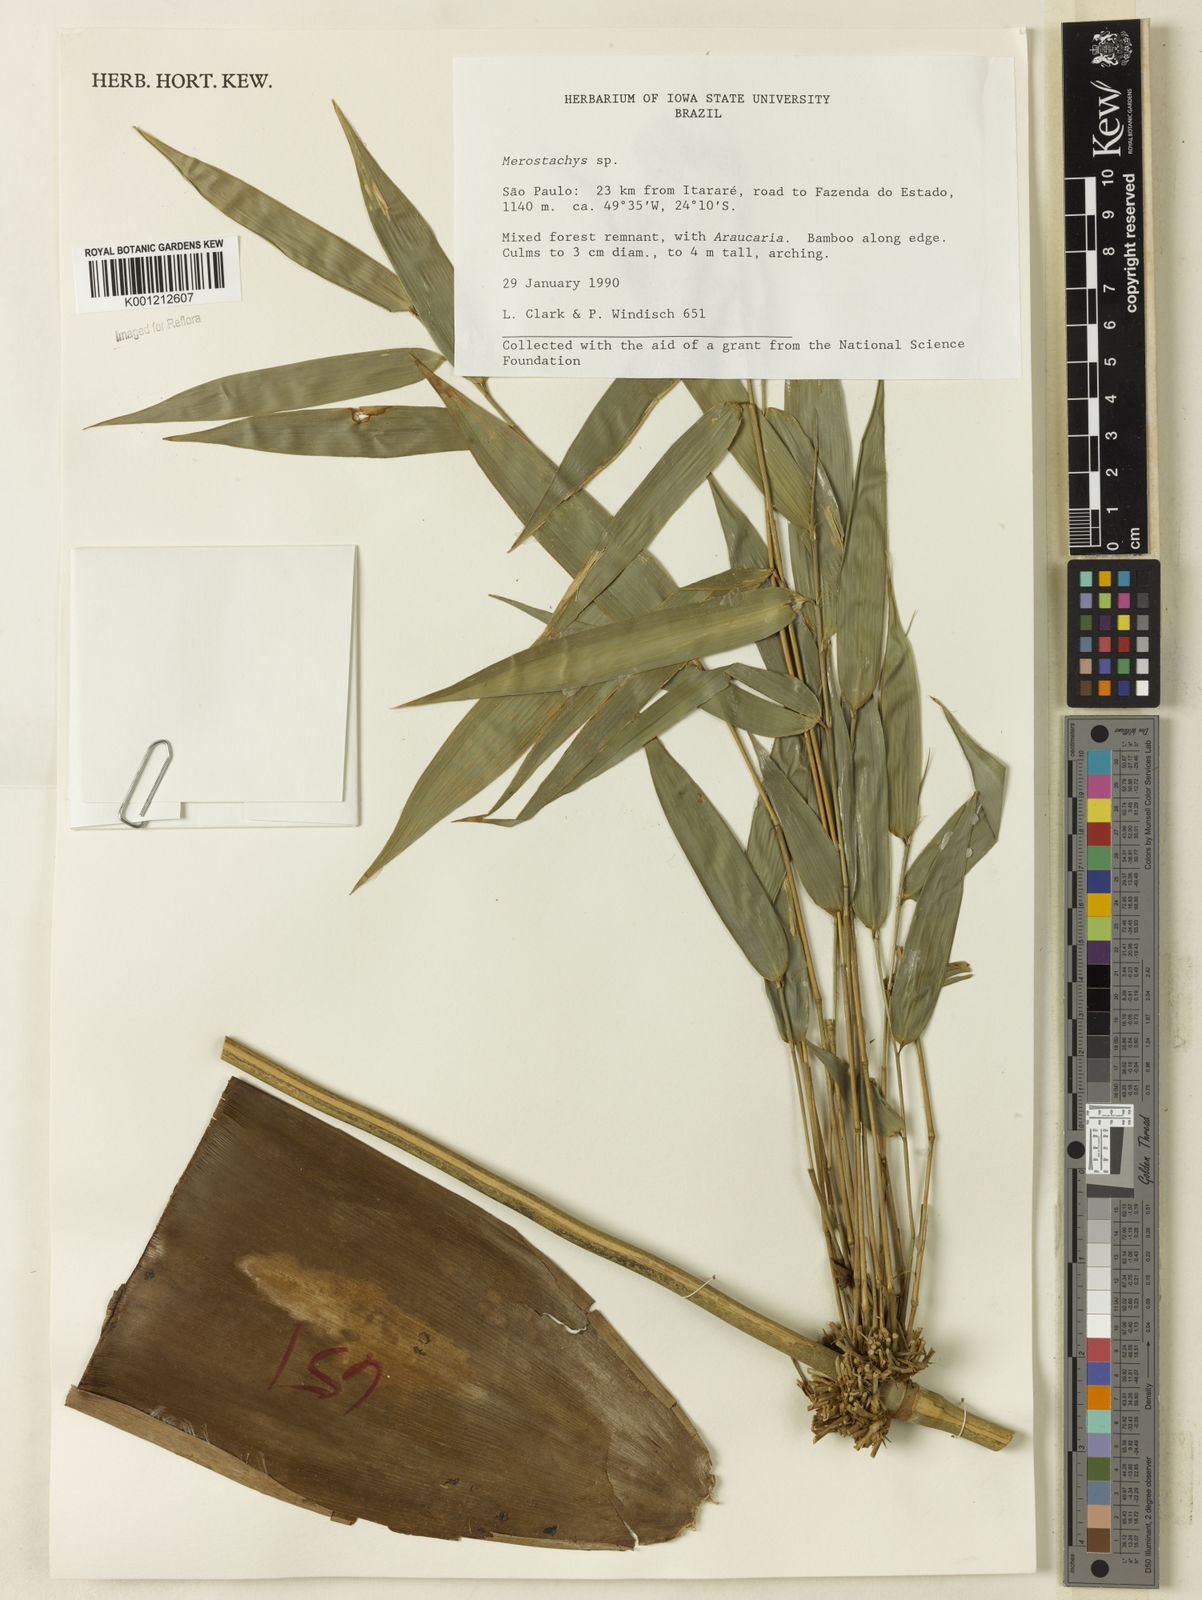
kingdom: Plantae
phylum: Tracheophyta
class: Liliopsida
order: Poales
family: Poaceae
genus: Merostachys
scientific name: Merostachys
